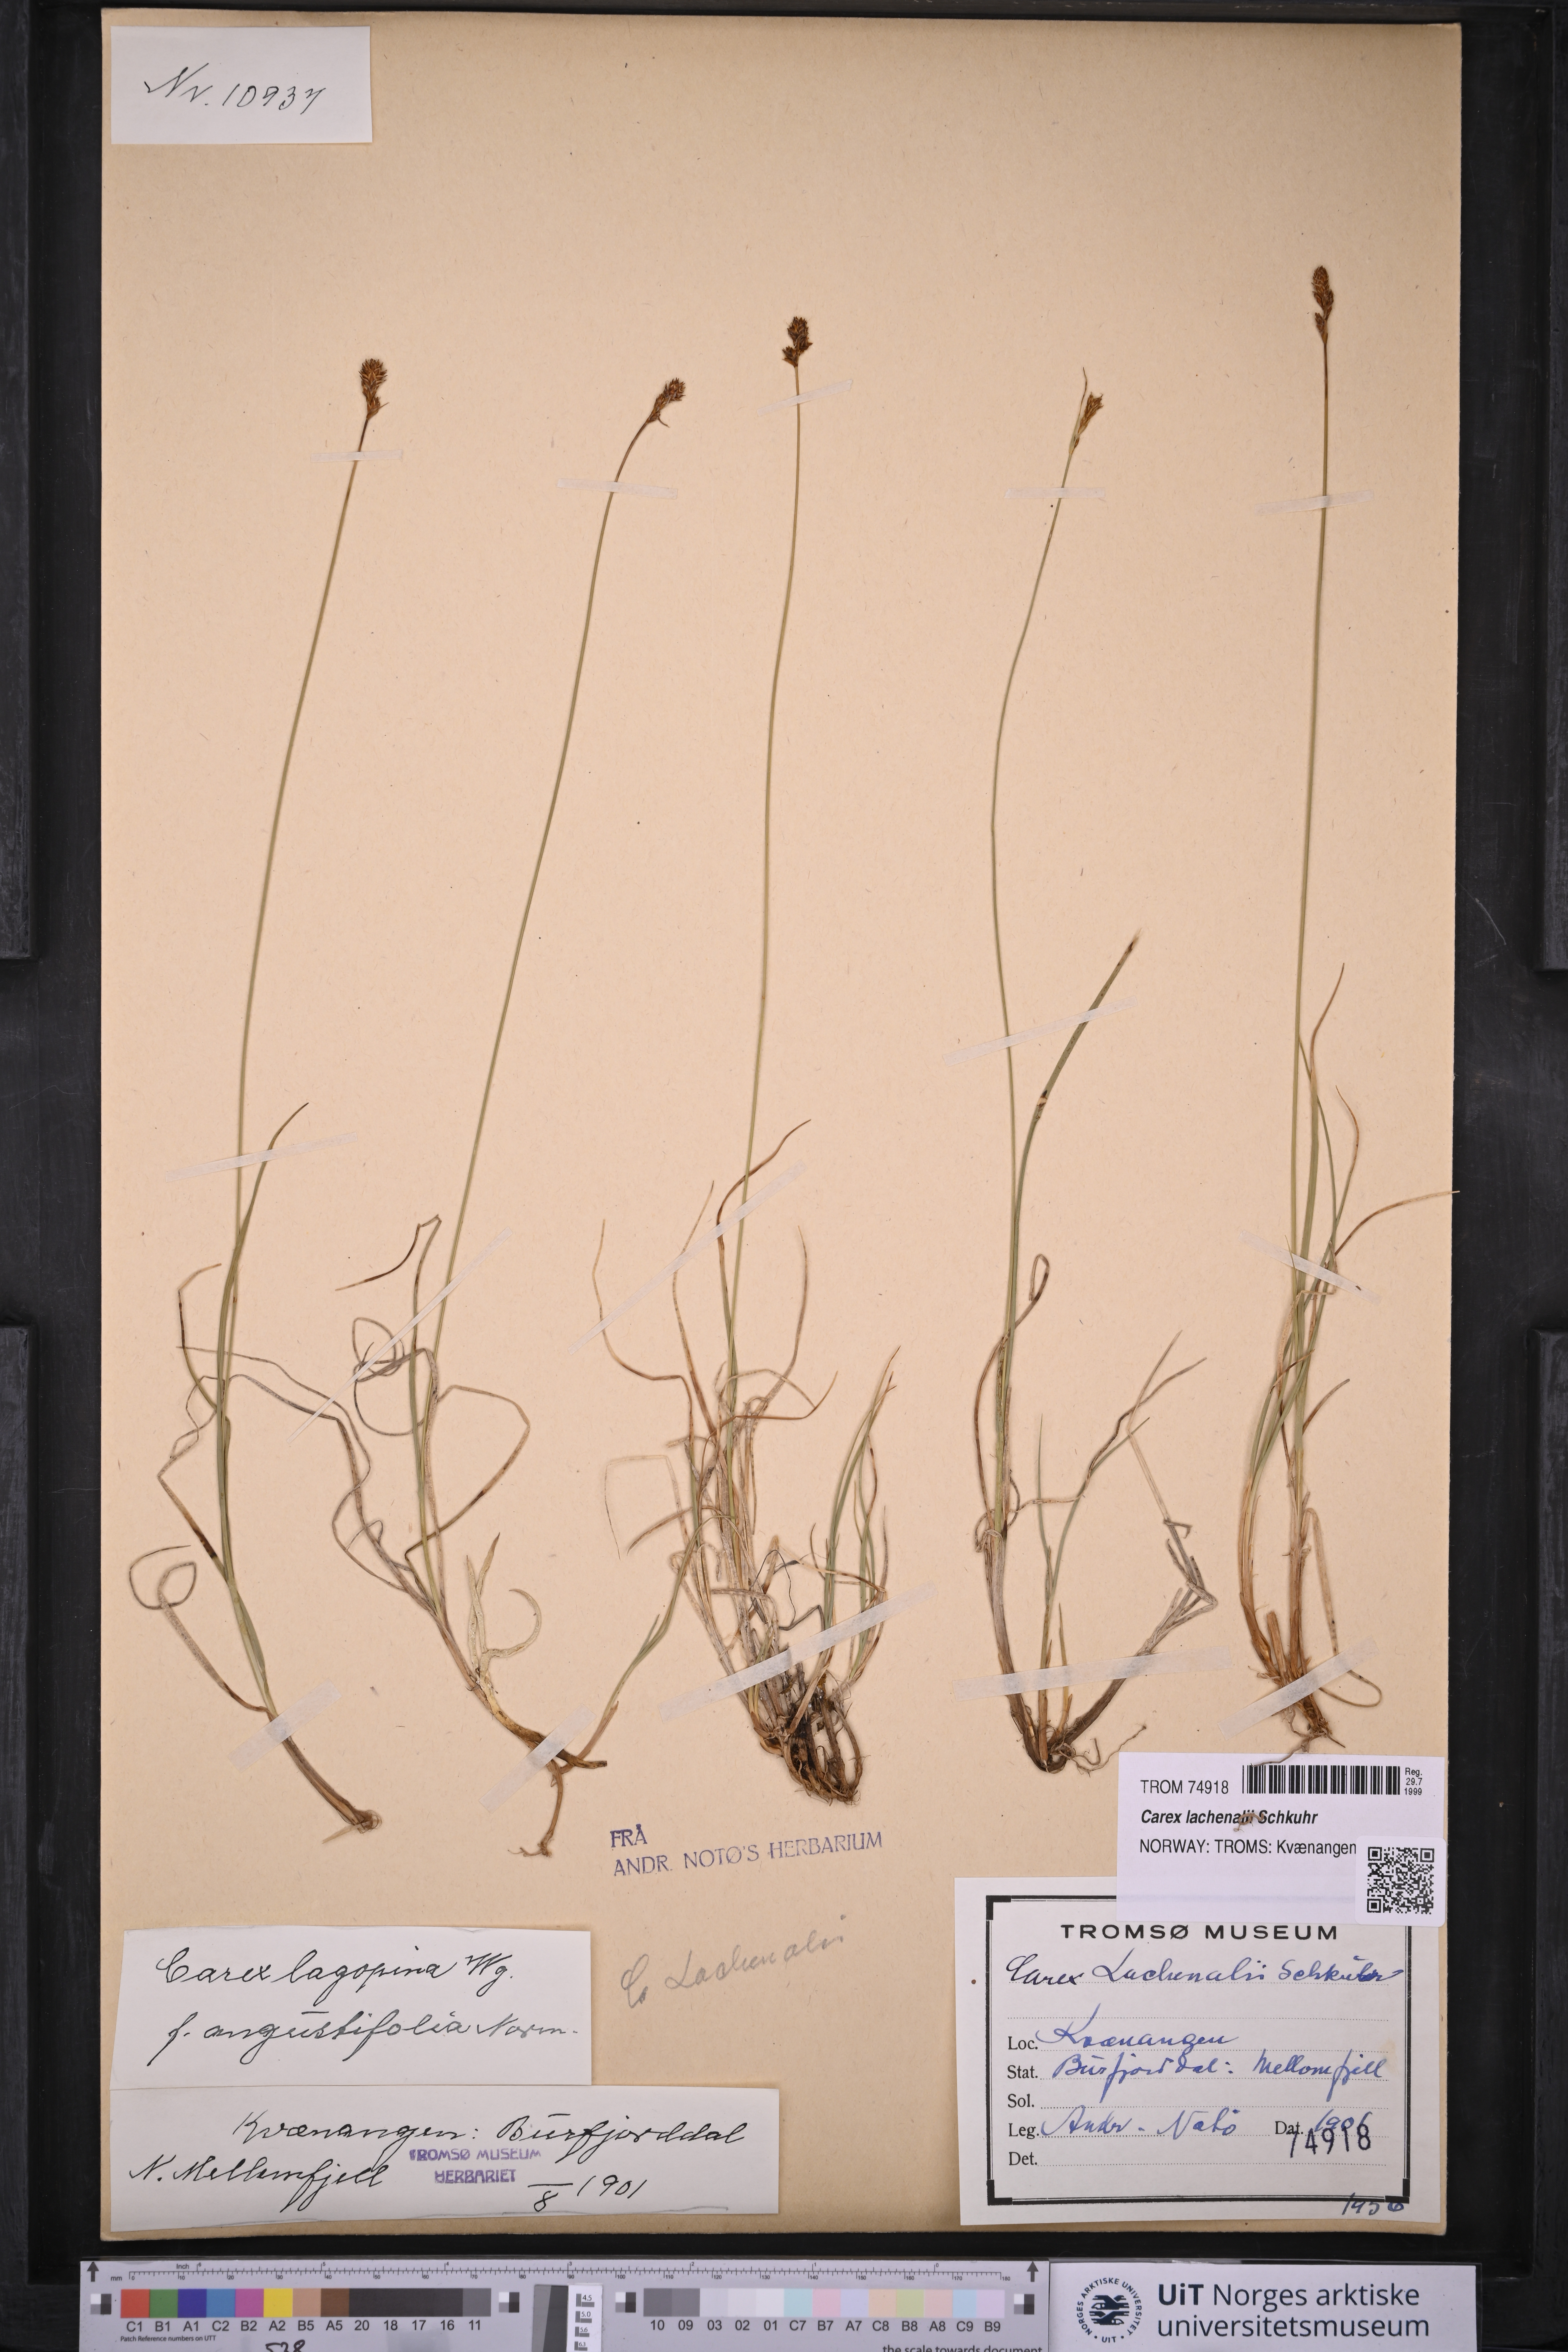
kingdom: Plantae
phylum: Tracheophyta
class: Liliopsida
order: Poales
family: Cyperaceae
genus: Carex
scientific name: Carex lachenalii
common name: Hare's-foot sedge
